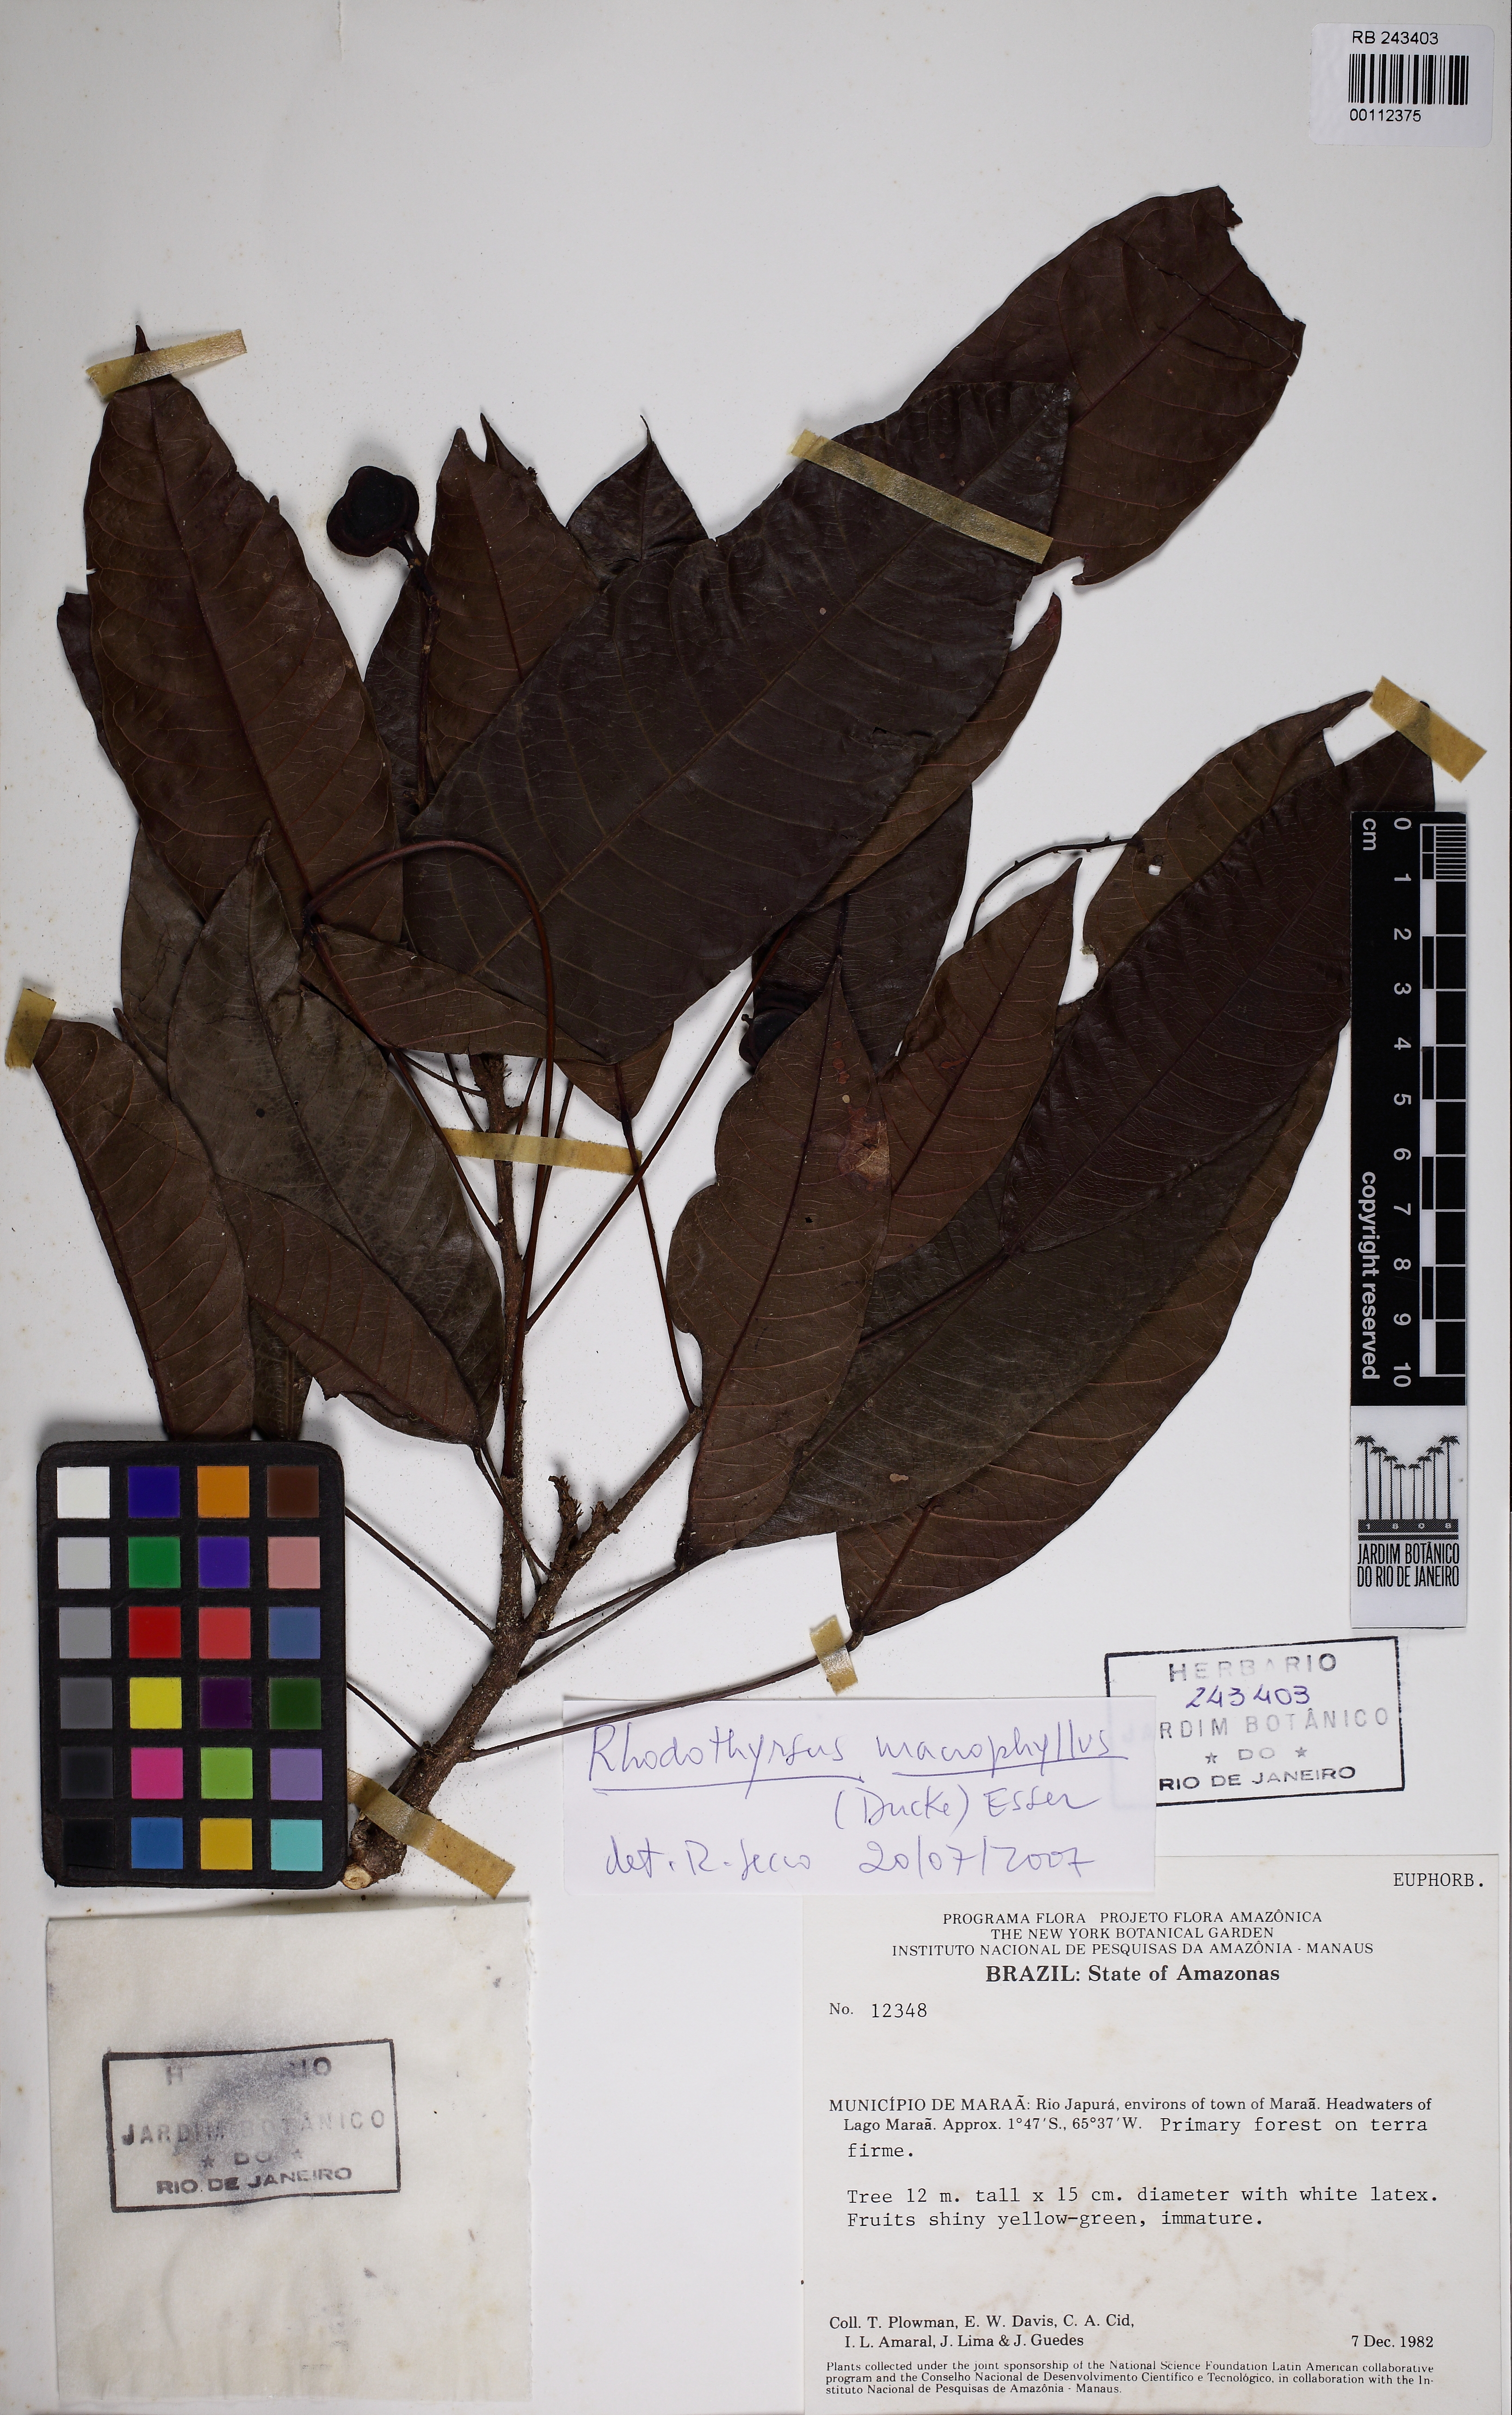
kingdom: Plantae
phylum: Tracheophyta
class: Magnoliopsida
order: Malpighiales
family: Euphorbiaceae
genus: Rhodothyrsus
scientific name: Rhodothyrsus macrophyllus
